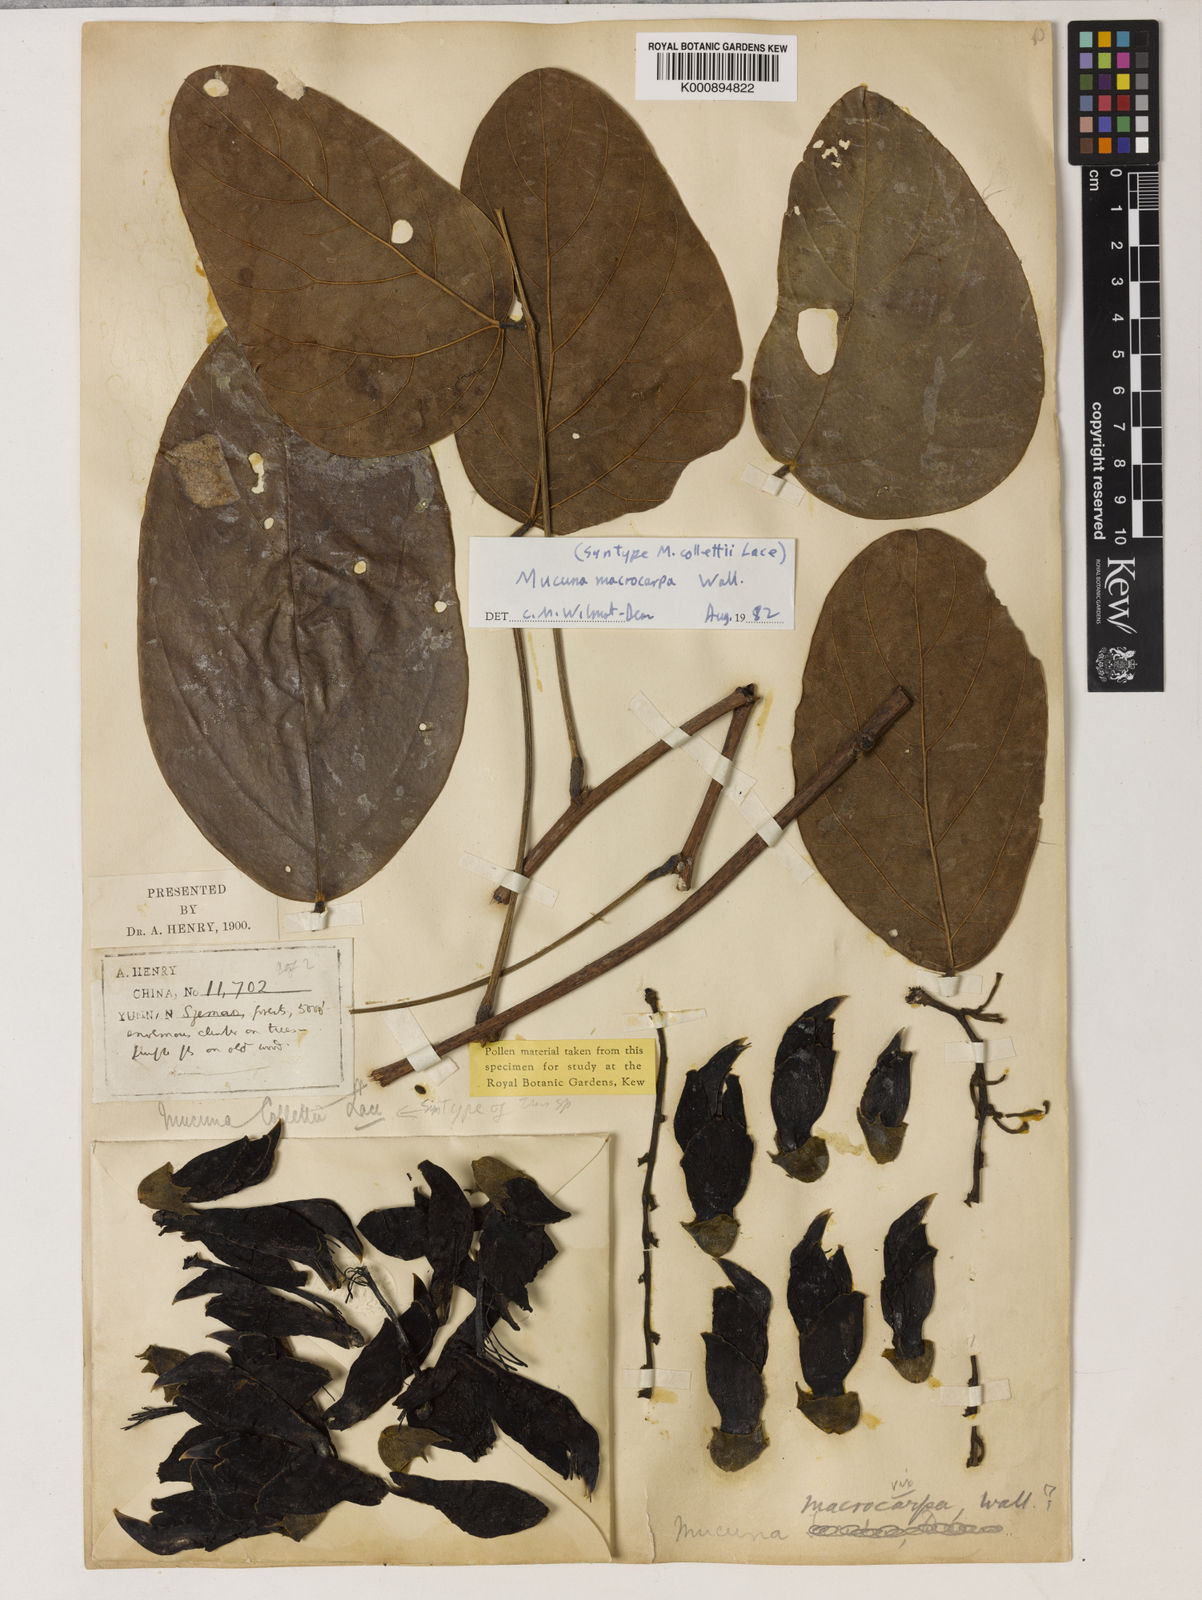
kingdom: Plantae
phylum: Tracheophyta
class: Magnoliopsida
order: Fabales
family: Fabaceae
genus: Mucuna
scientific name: Mucuna macrocarpa
